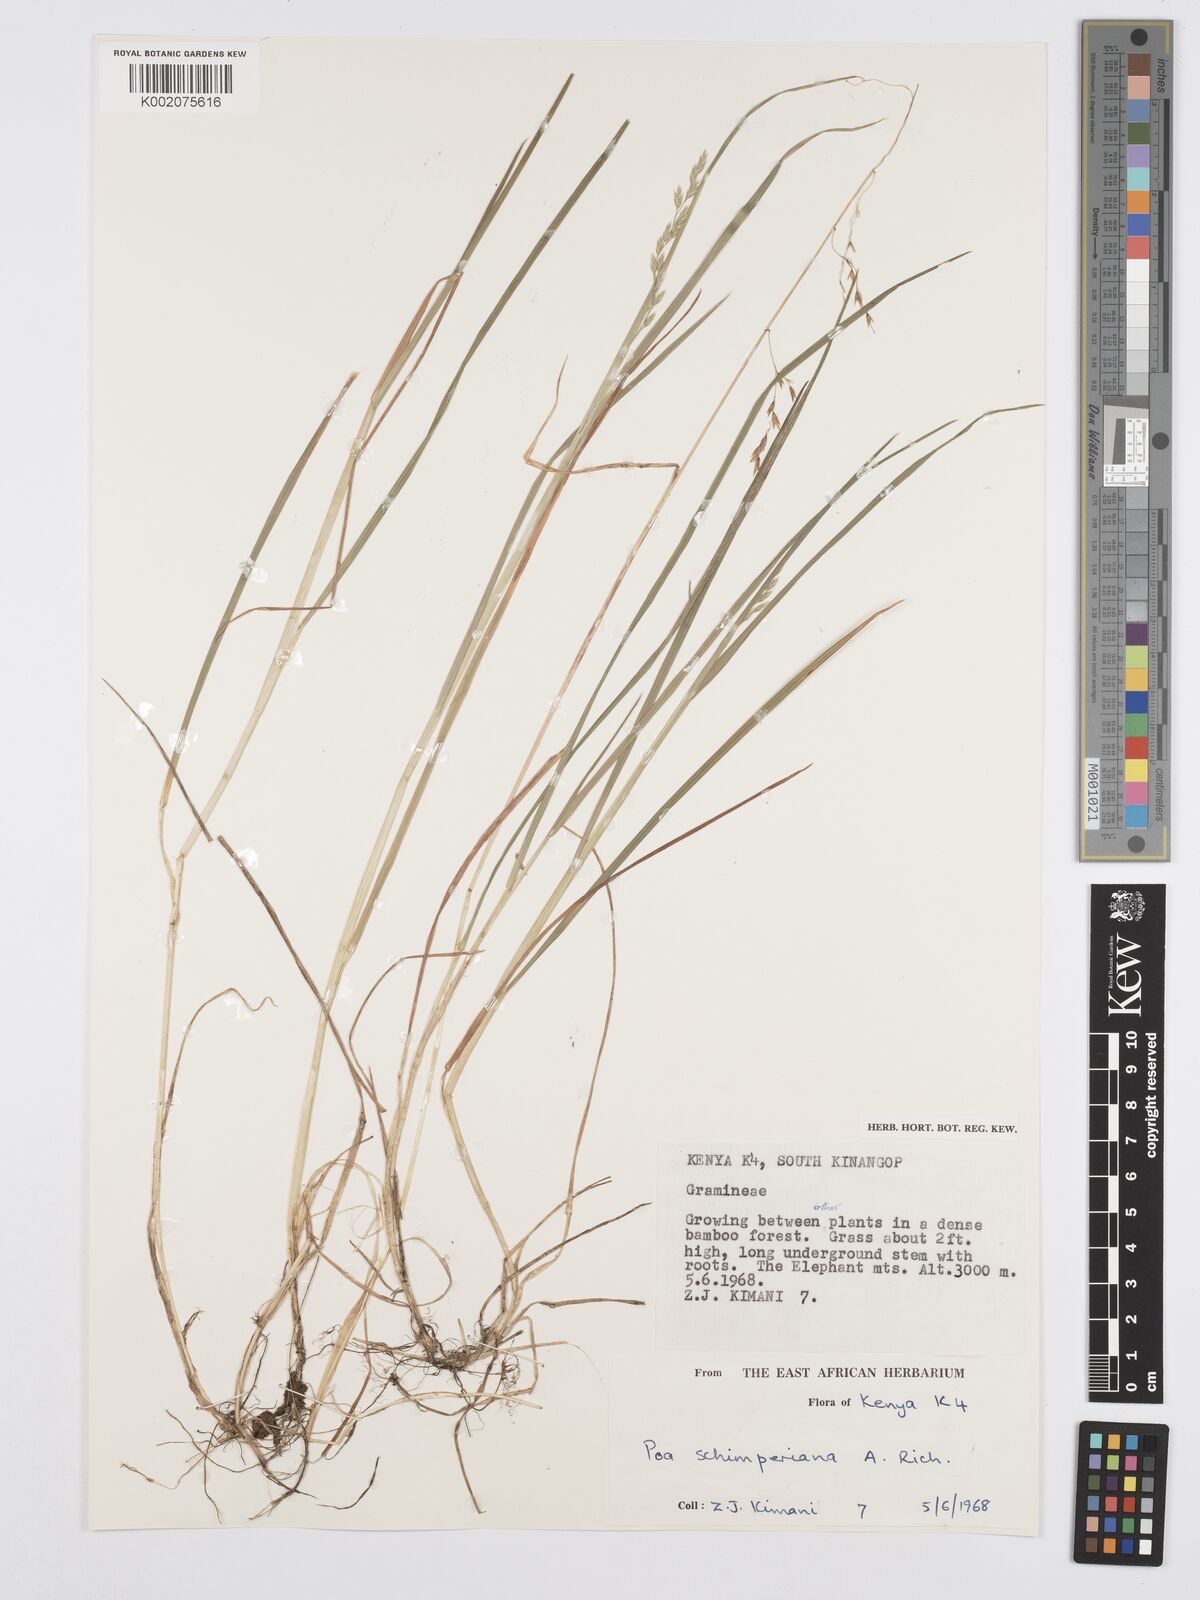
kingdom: Plantae
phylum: Tracheophyta
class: Liliopsida
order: Poales
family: Poaceae
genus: Poa
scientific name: Poa schimperiana
